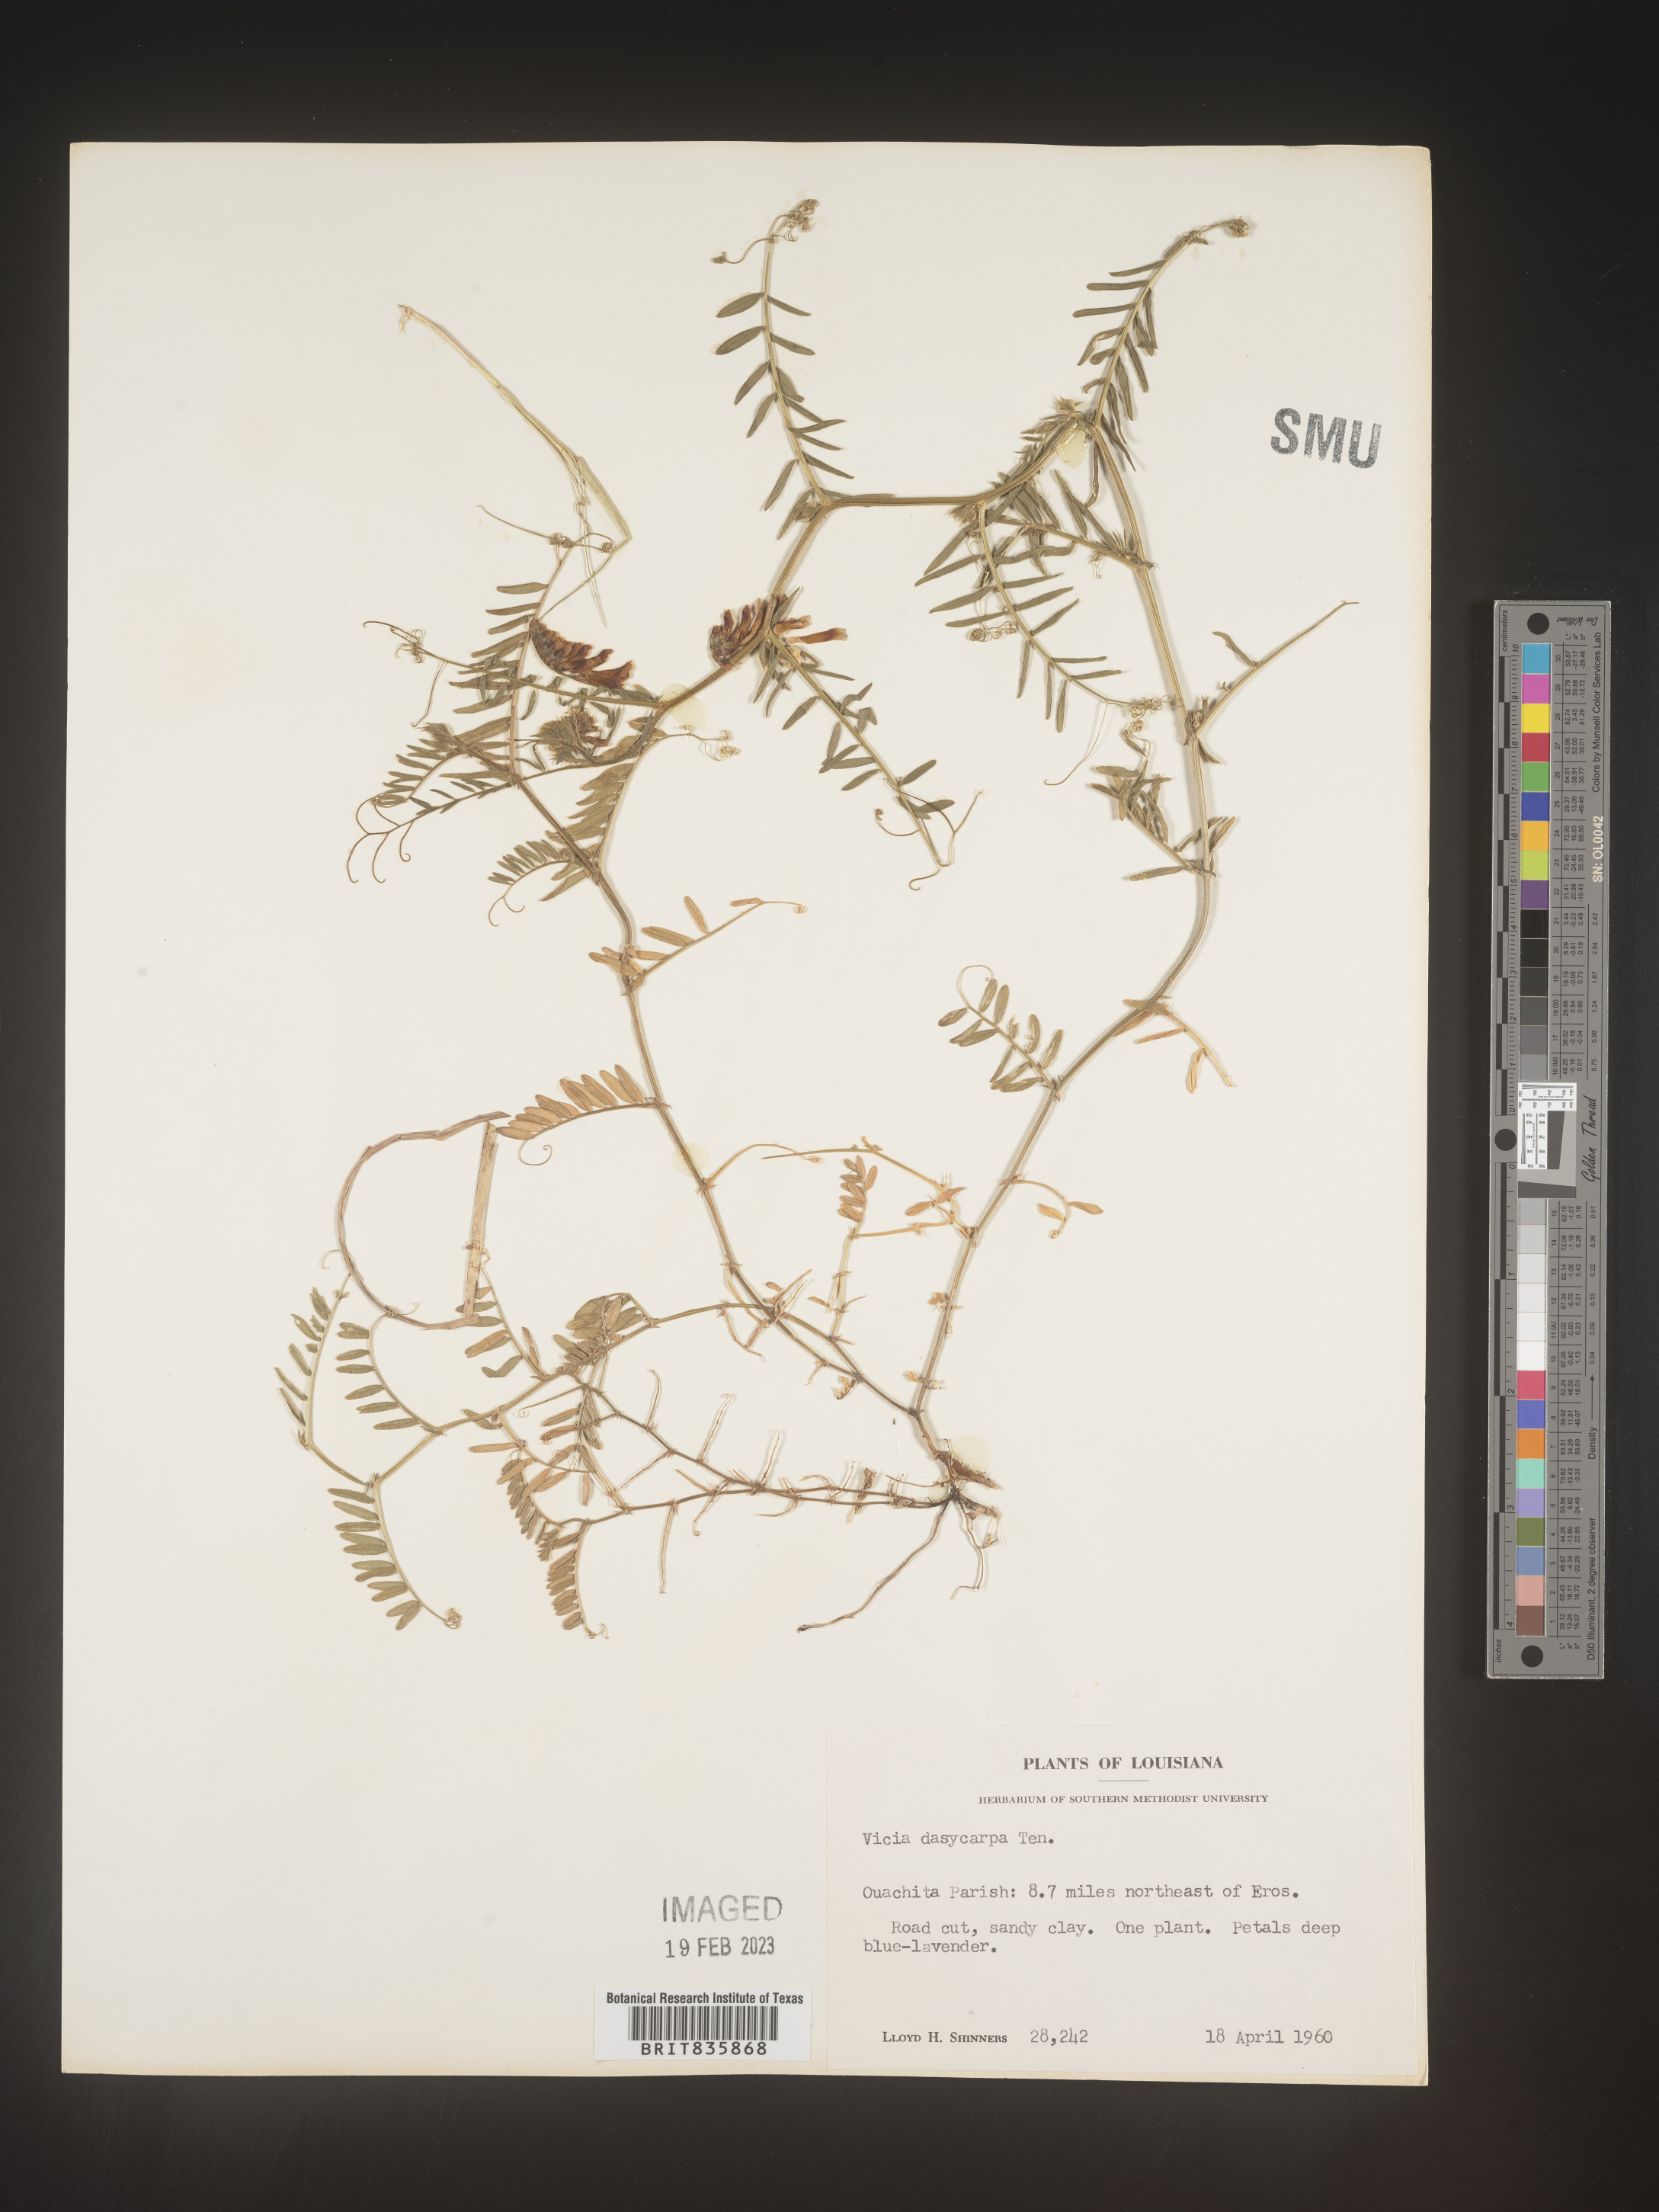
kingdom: Plantae
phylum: Tracheophyta
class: Magnoliopsida
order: Fabales
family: Fabaceae
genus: Vicia
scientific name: Vicia villosa
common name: Fodder vetch
